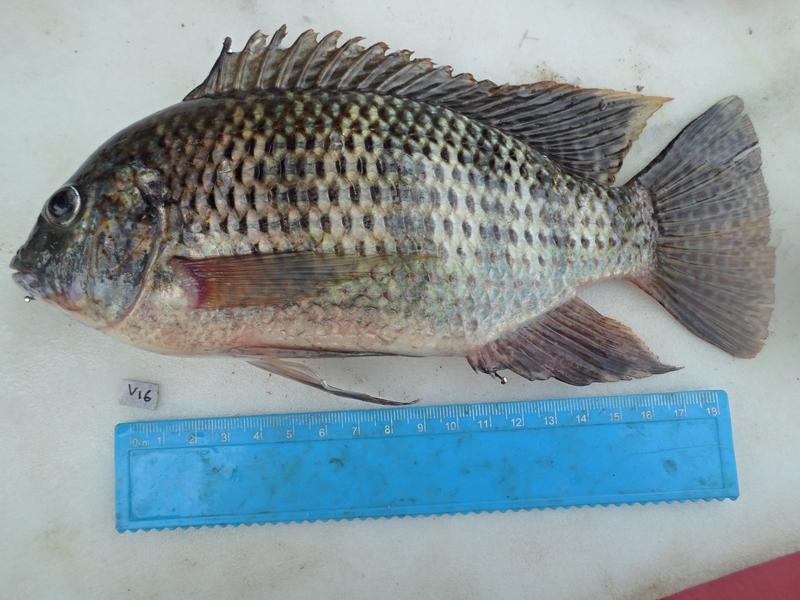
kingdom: Animalia
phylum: Chordata
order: Perciformes
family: Cichlidae
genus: Coptodon
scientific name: Coptodon zillii
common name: Redbelly tilapia
